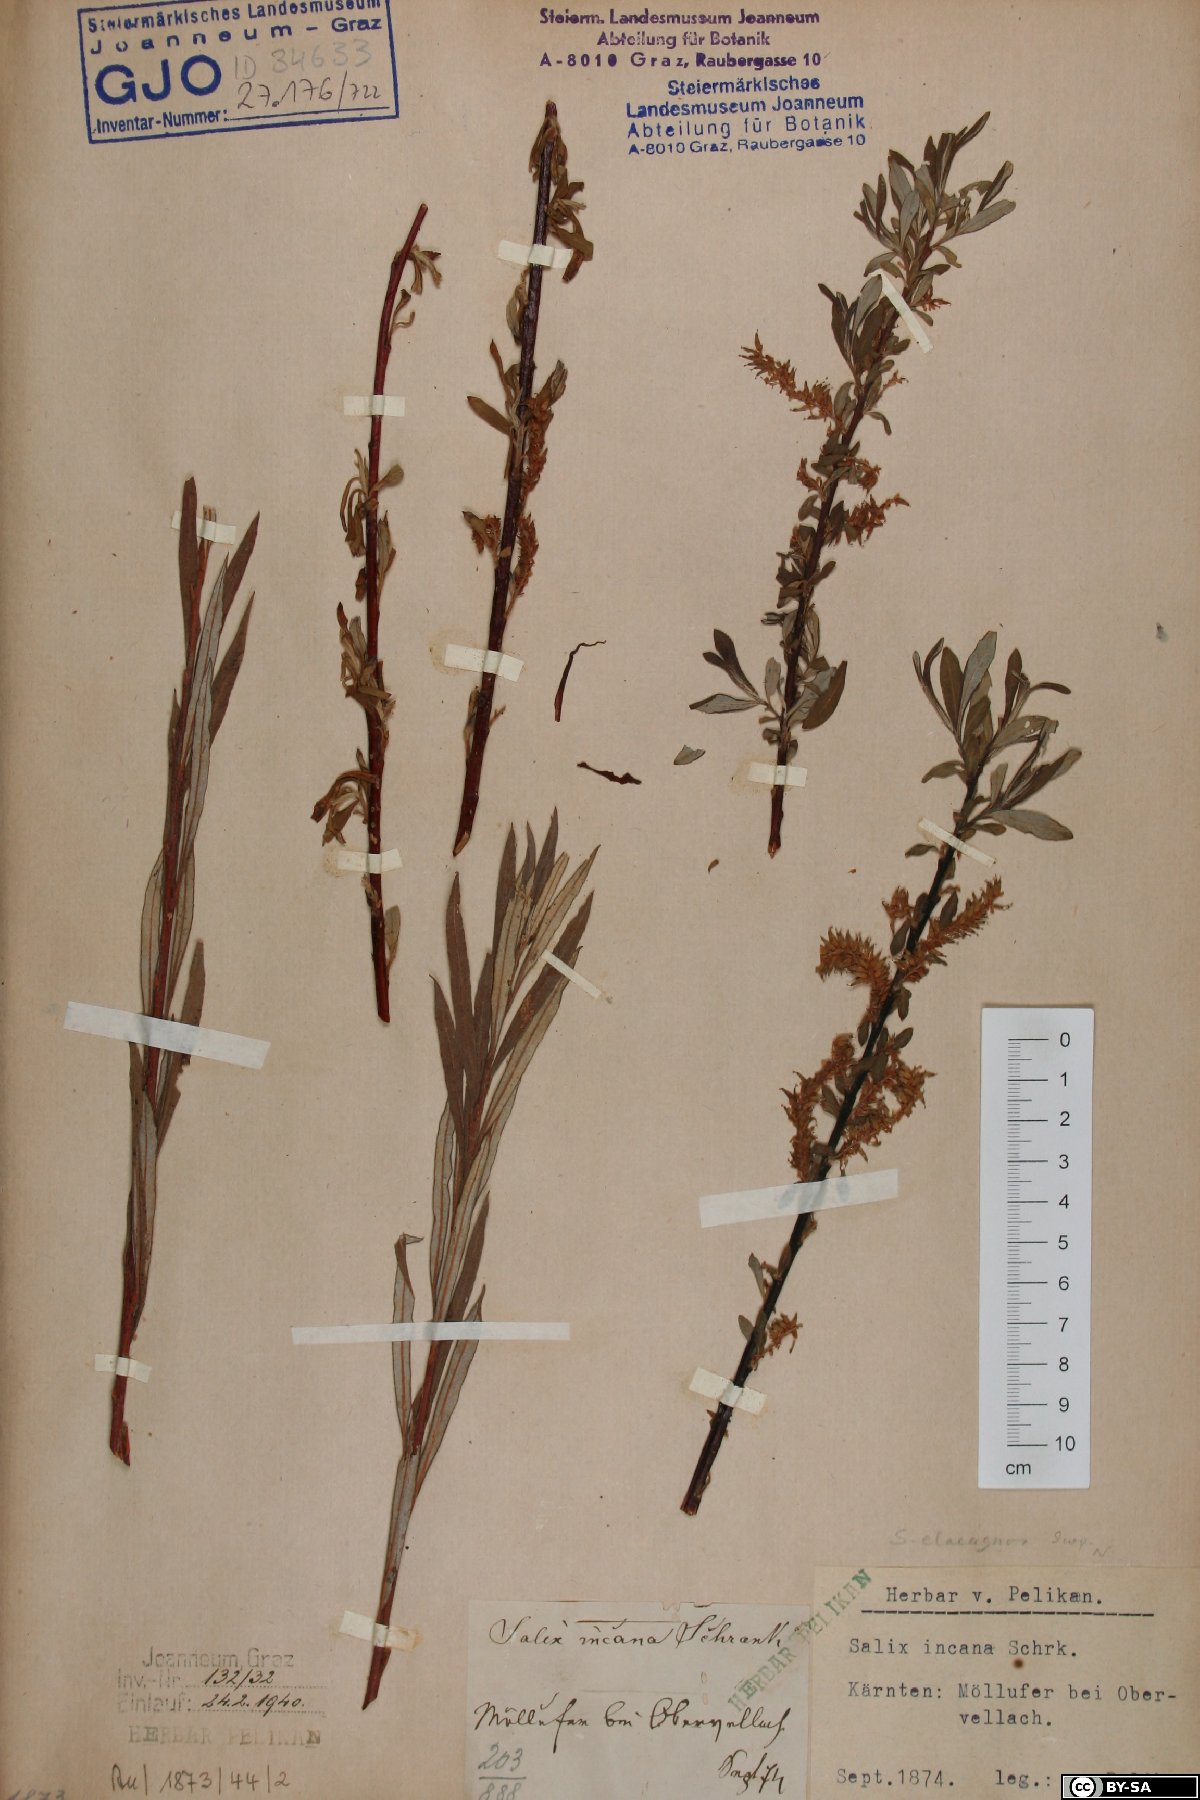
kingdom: Plantae
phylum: Tracheophyta
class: Magnoliopsida
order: Malpighiales
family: Salicaceae
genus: Salix
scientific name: Salix eleagnos
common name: Elaeagnus willow
